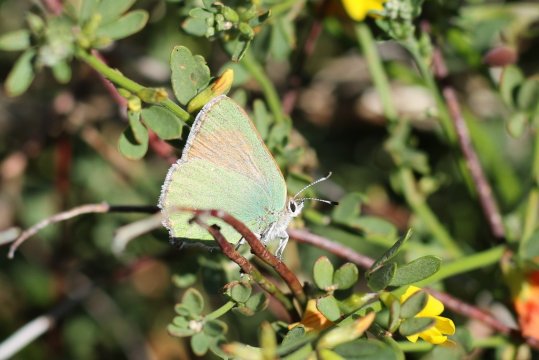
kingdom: Animalia
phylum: Arthropoda
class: Insecta
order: Lepidoptera
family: Lycaenidae
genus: Callophrys
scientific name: Callophrys dumetorum
